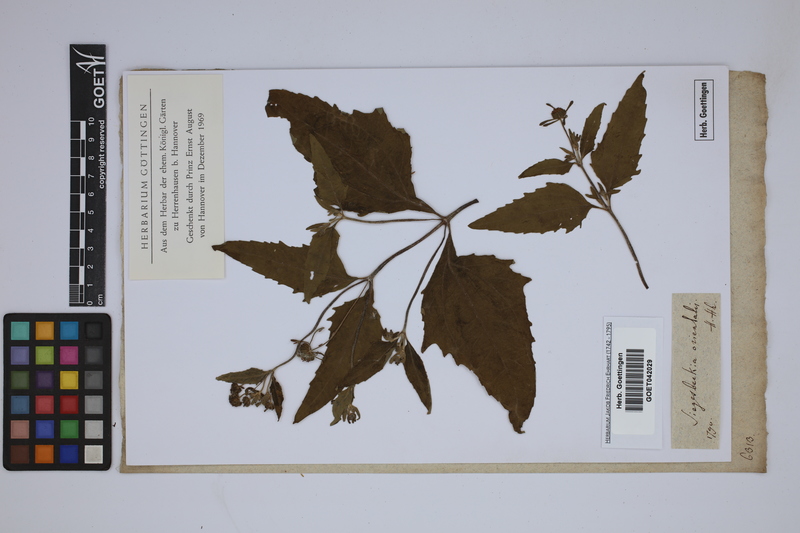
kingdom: Plantae
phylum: Tracheophyta
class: Magnoliopsida
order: Asterales
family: Asteraceae
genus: Sigesbeckia
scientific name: Sigesbeckia orientalis
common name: Eastern st paul's-wort
